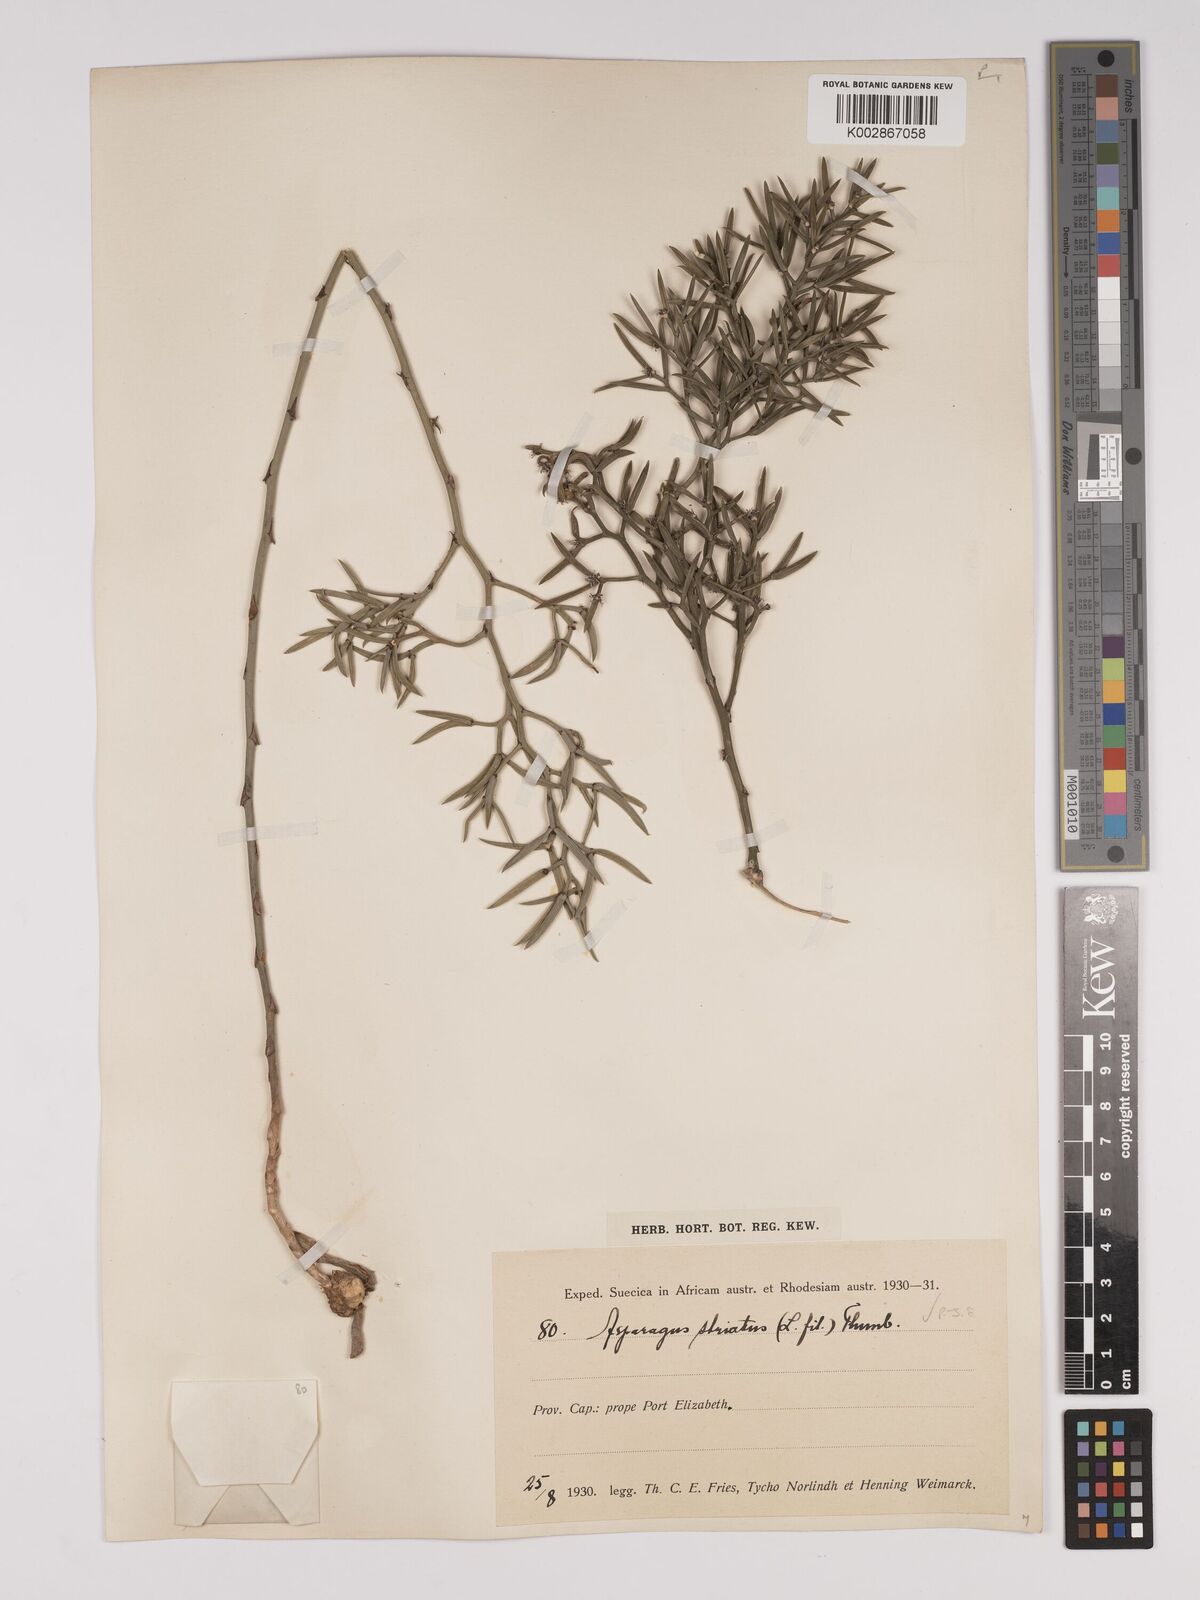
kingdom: Plantae
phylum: Tracheophyta
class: Liliopsida
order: Asparagales
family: Asparagaceae
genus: Asparagus
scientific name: Asparagus striatus
